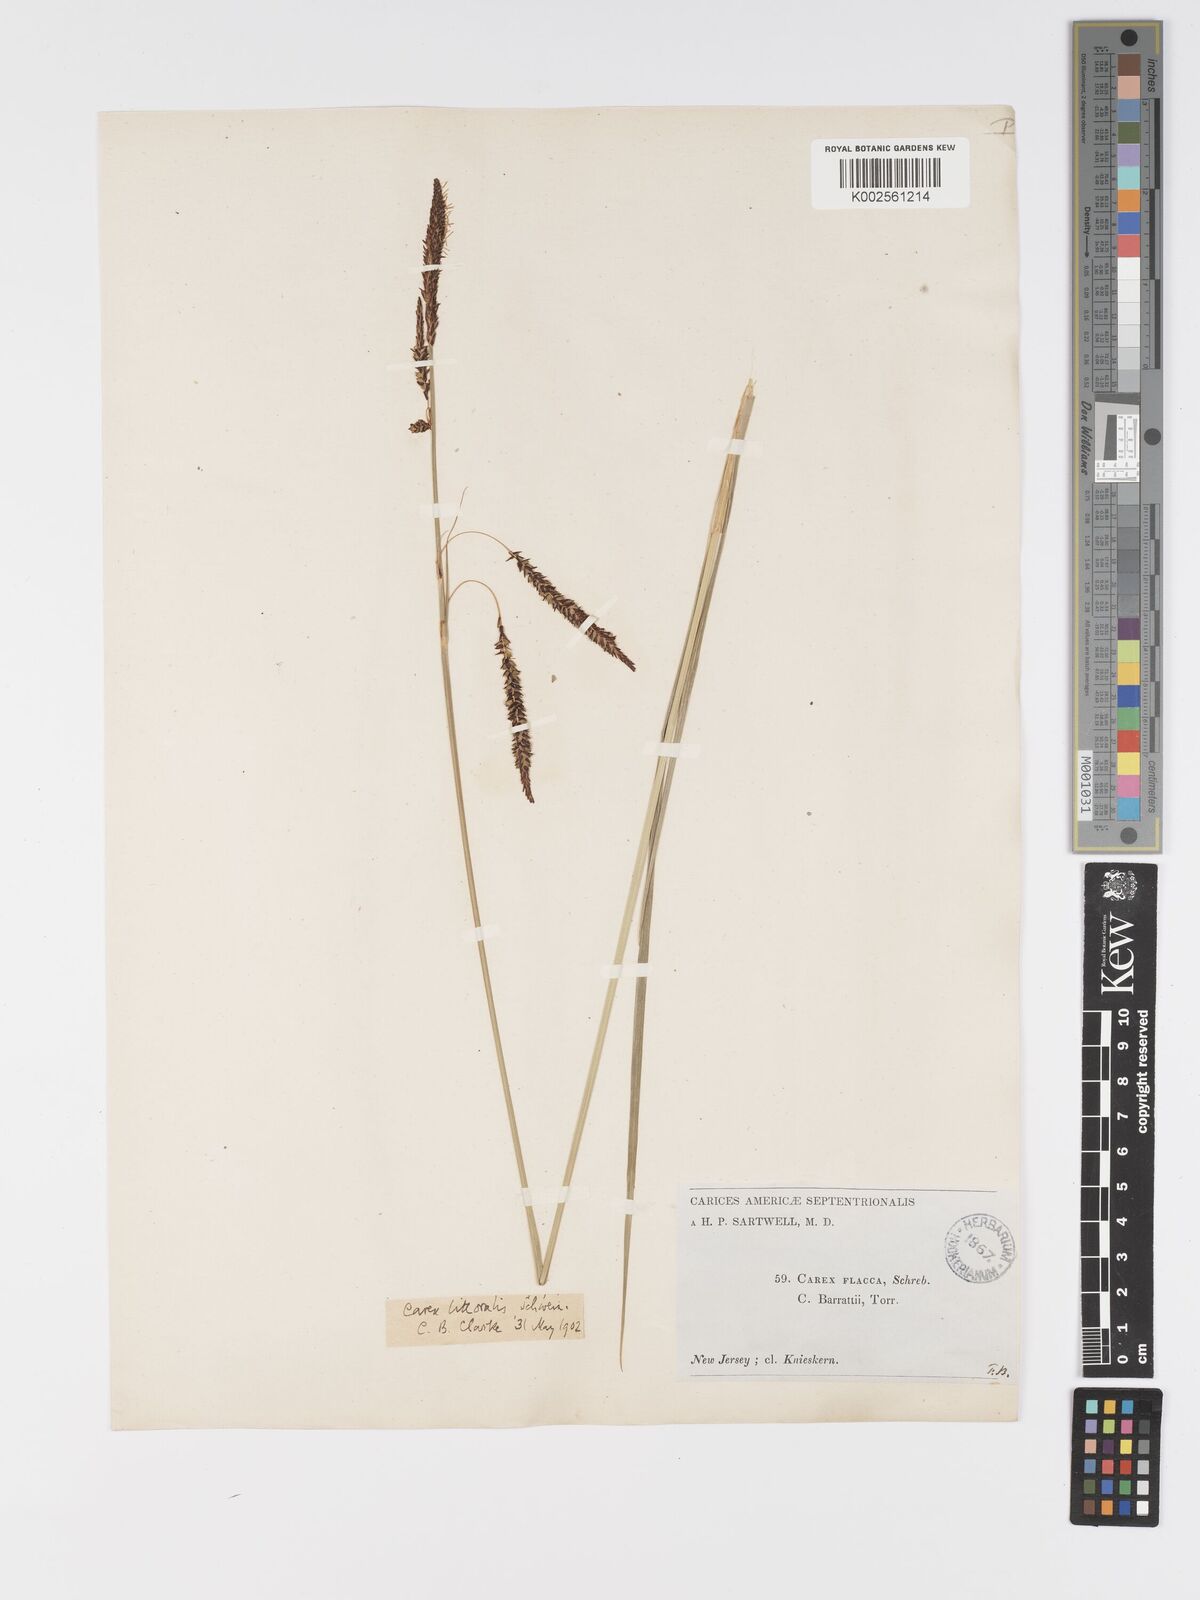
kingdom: Plantae
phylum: Tracheophyta
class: Liliopsida
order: Poales
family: Cyperaceae
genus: Carex
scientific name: Carex barrattii
